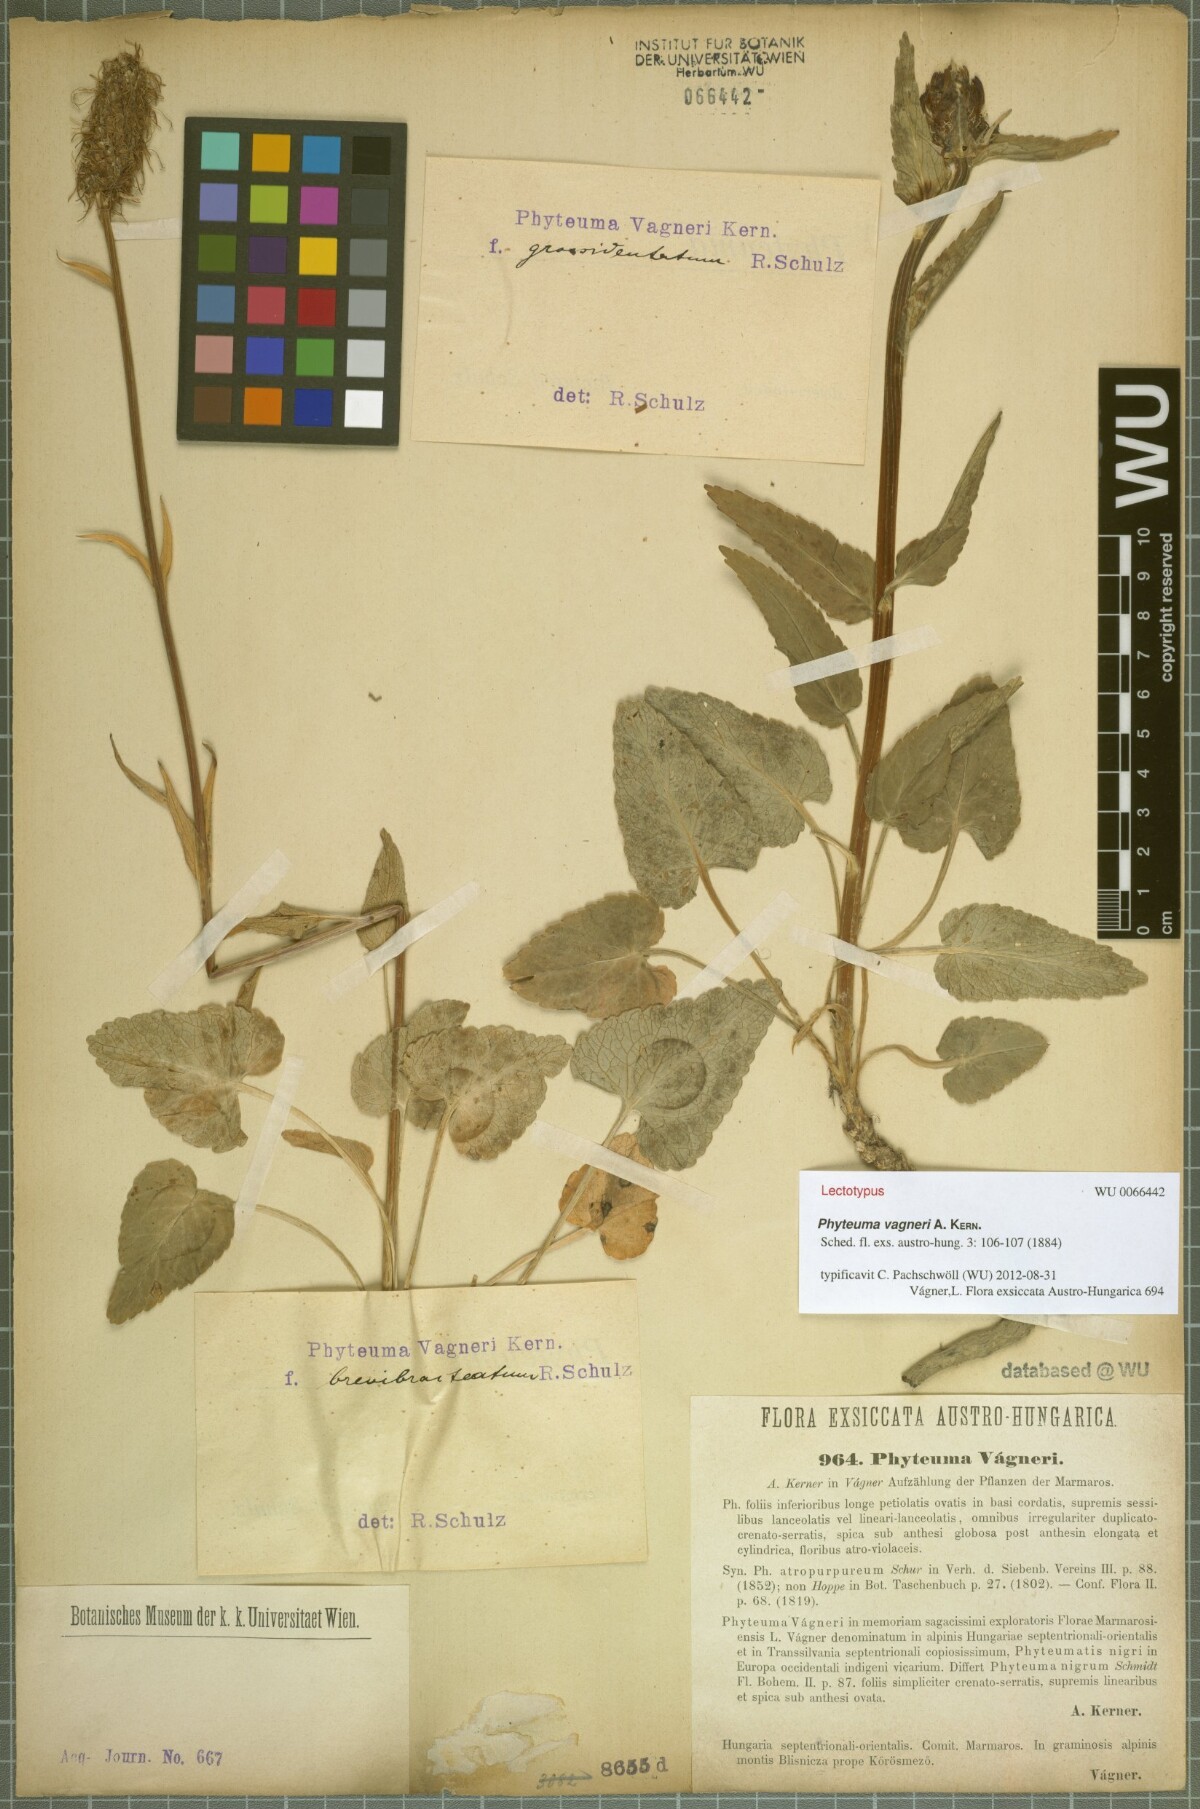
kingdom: Plantae
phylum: Tracheophyta
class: Magnoliopsida
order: Asterales
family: Campanulaceae
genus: Phyteuma
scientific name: Phyteuma vagneri
